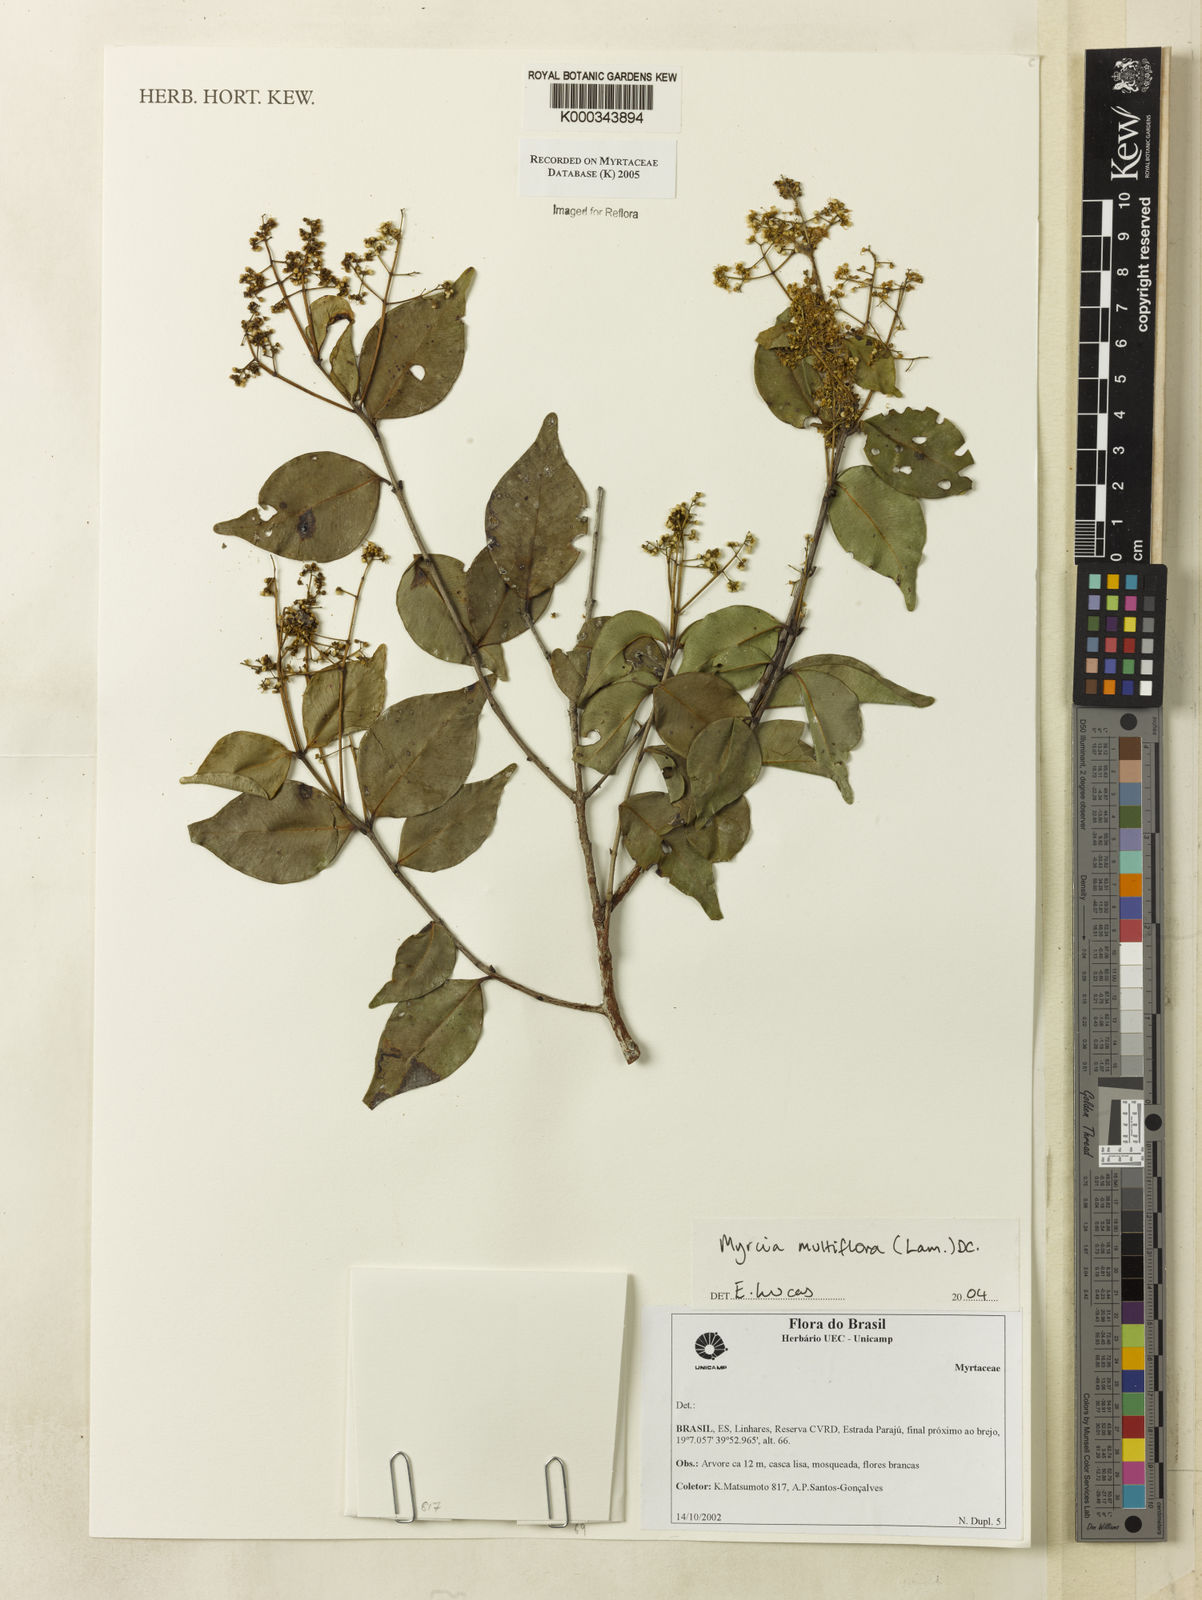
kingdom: Plantae
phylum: Tracheophyta
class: Magnoliopsida
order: Myrtales
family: Myrtaceae
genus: Myrcia
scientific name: Myrcia multiflora
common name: Pedra hume
